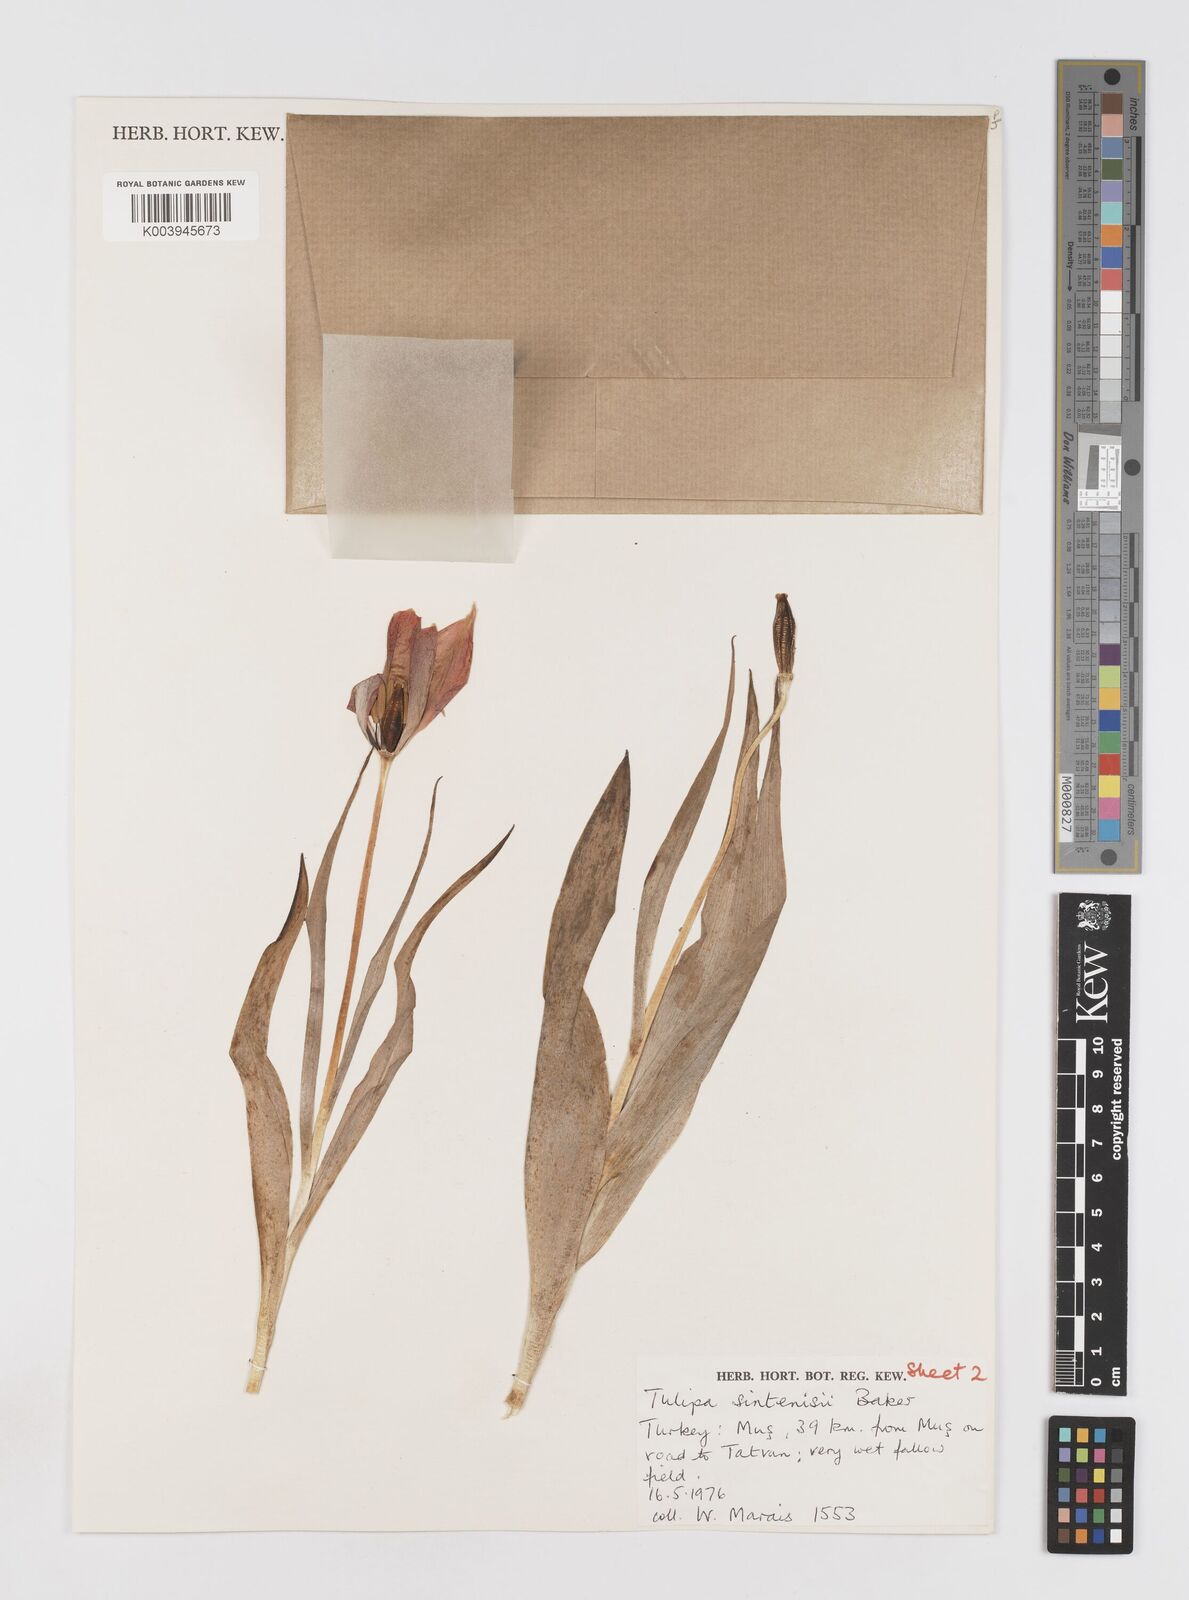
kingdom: Plantae
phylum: Tracheophyta
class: Liliopsida
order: Liliales
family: Liliaceae
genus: Tulipa
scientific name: Tulipa aleppensis
